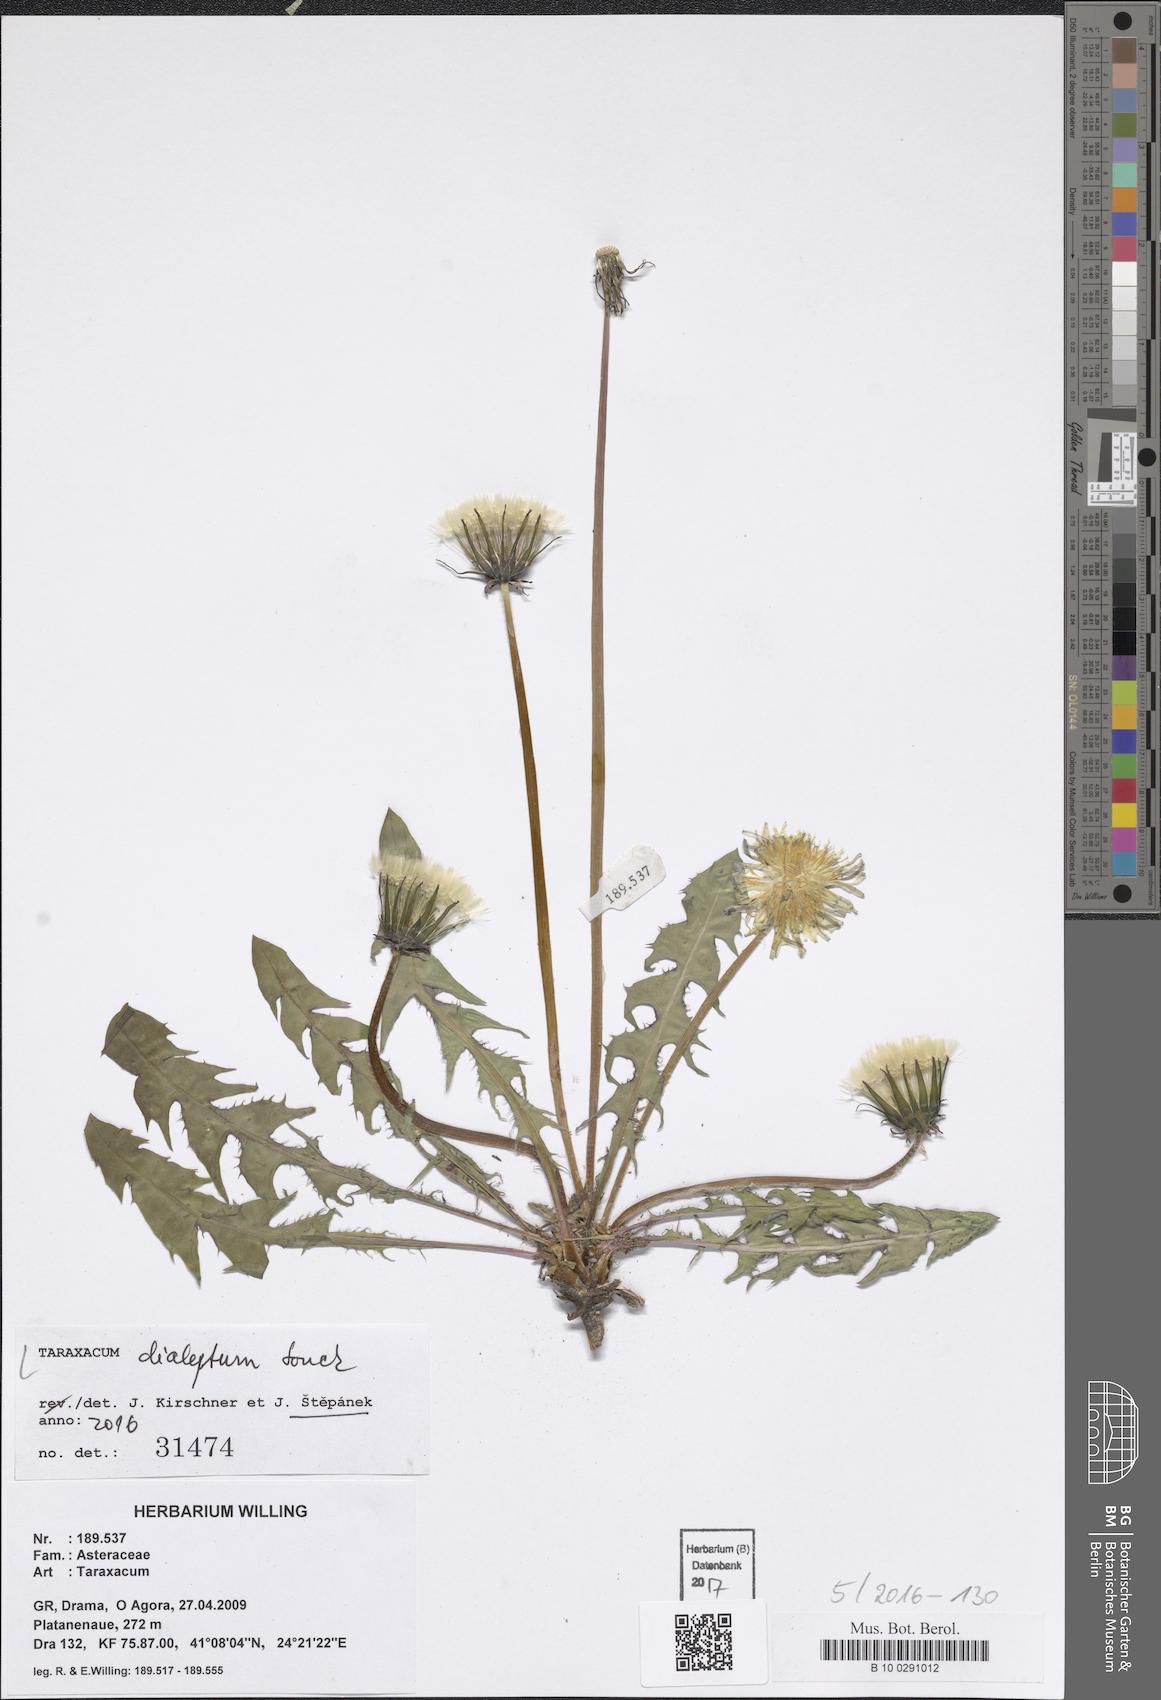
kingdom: Plantae
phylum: Tracheophyta
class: Magnoliopsida
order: Asterales
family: Asteraceae
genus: Taraxacum
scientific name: Taraxacum dialeptum
